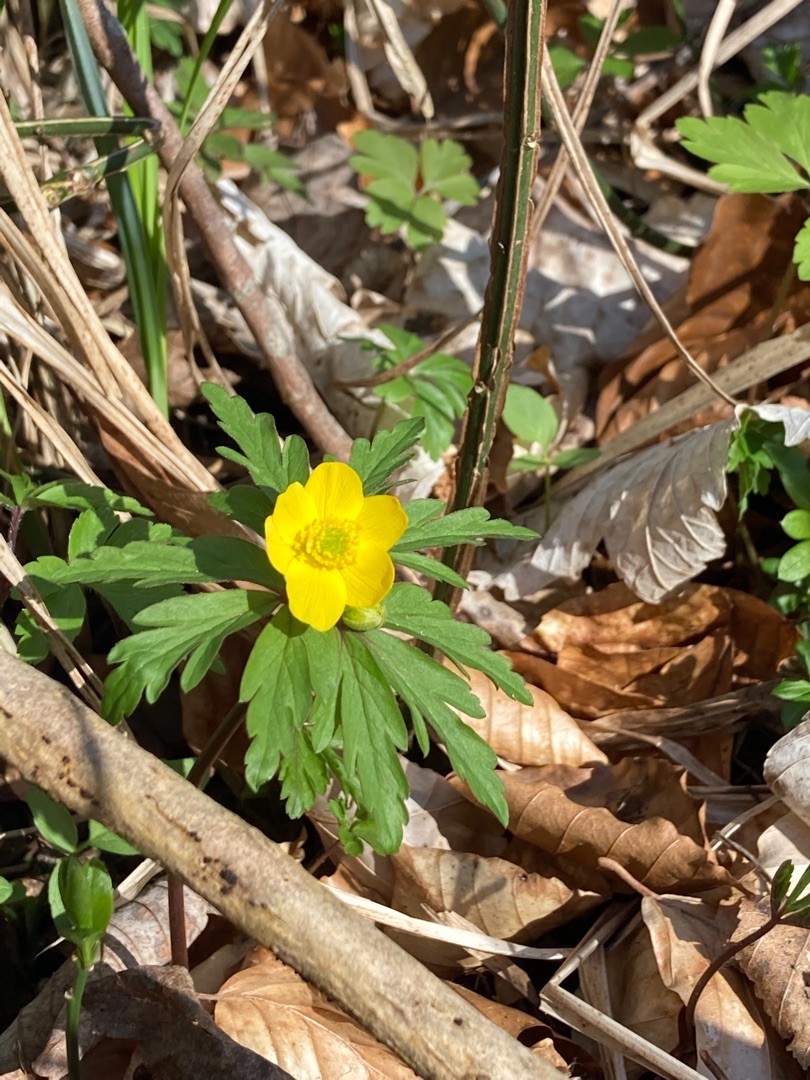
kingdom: Plantae
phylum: Tracheophyta
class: Magnoliopsida
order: Ranunculales
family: Ranunculaceae
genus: Anemone
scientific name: Anemone ranunculoides
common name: Gul anemone
